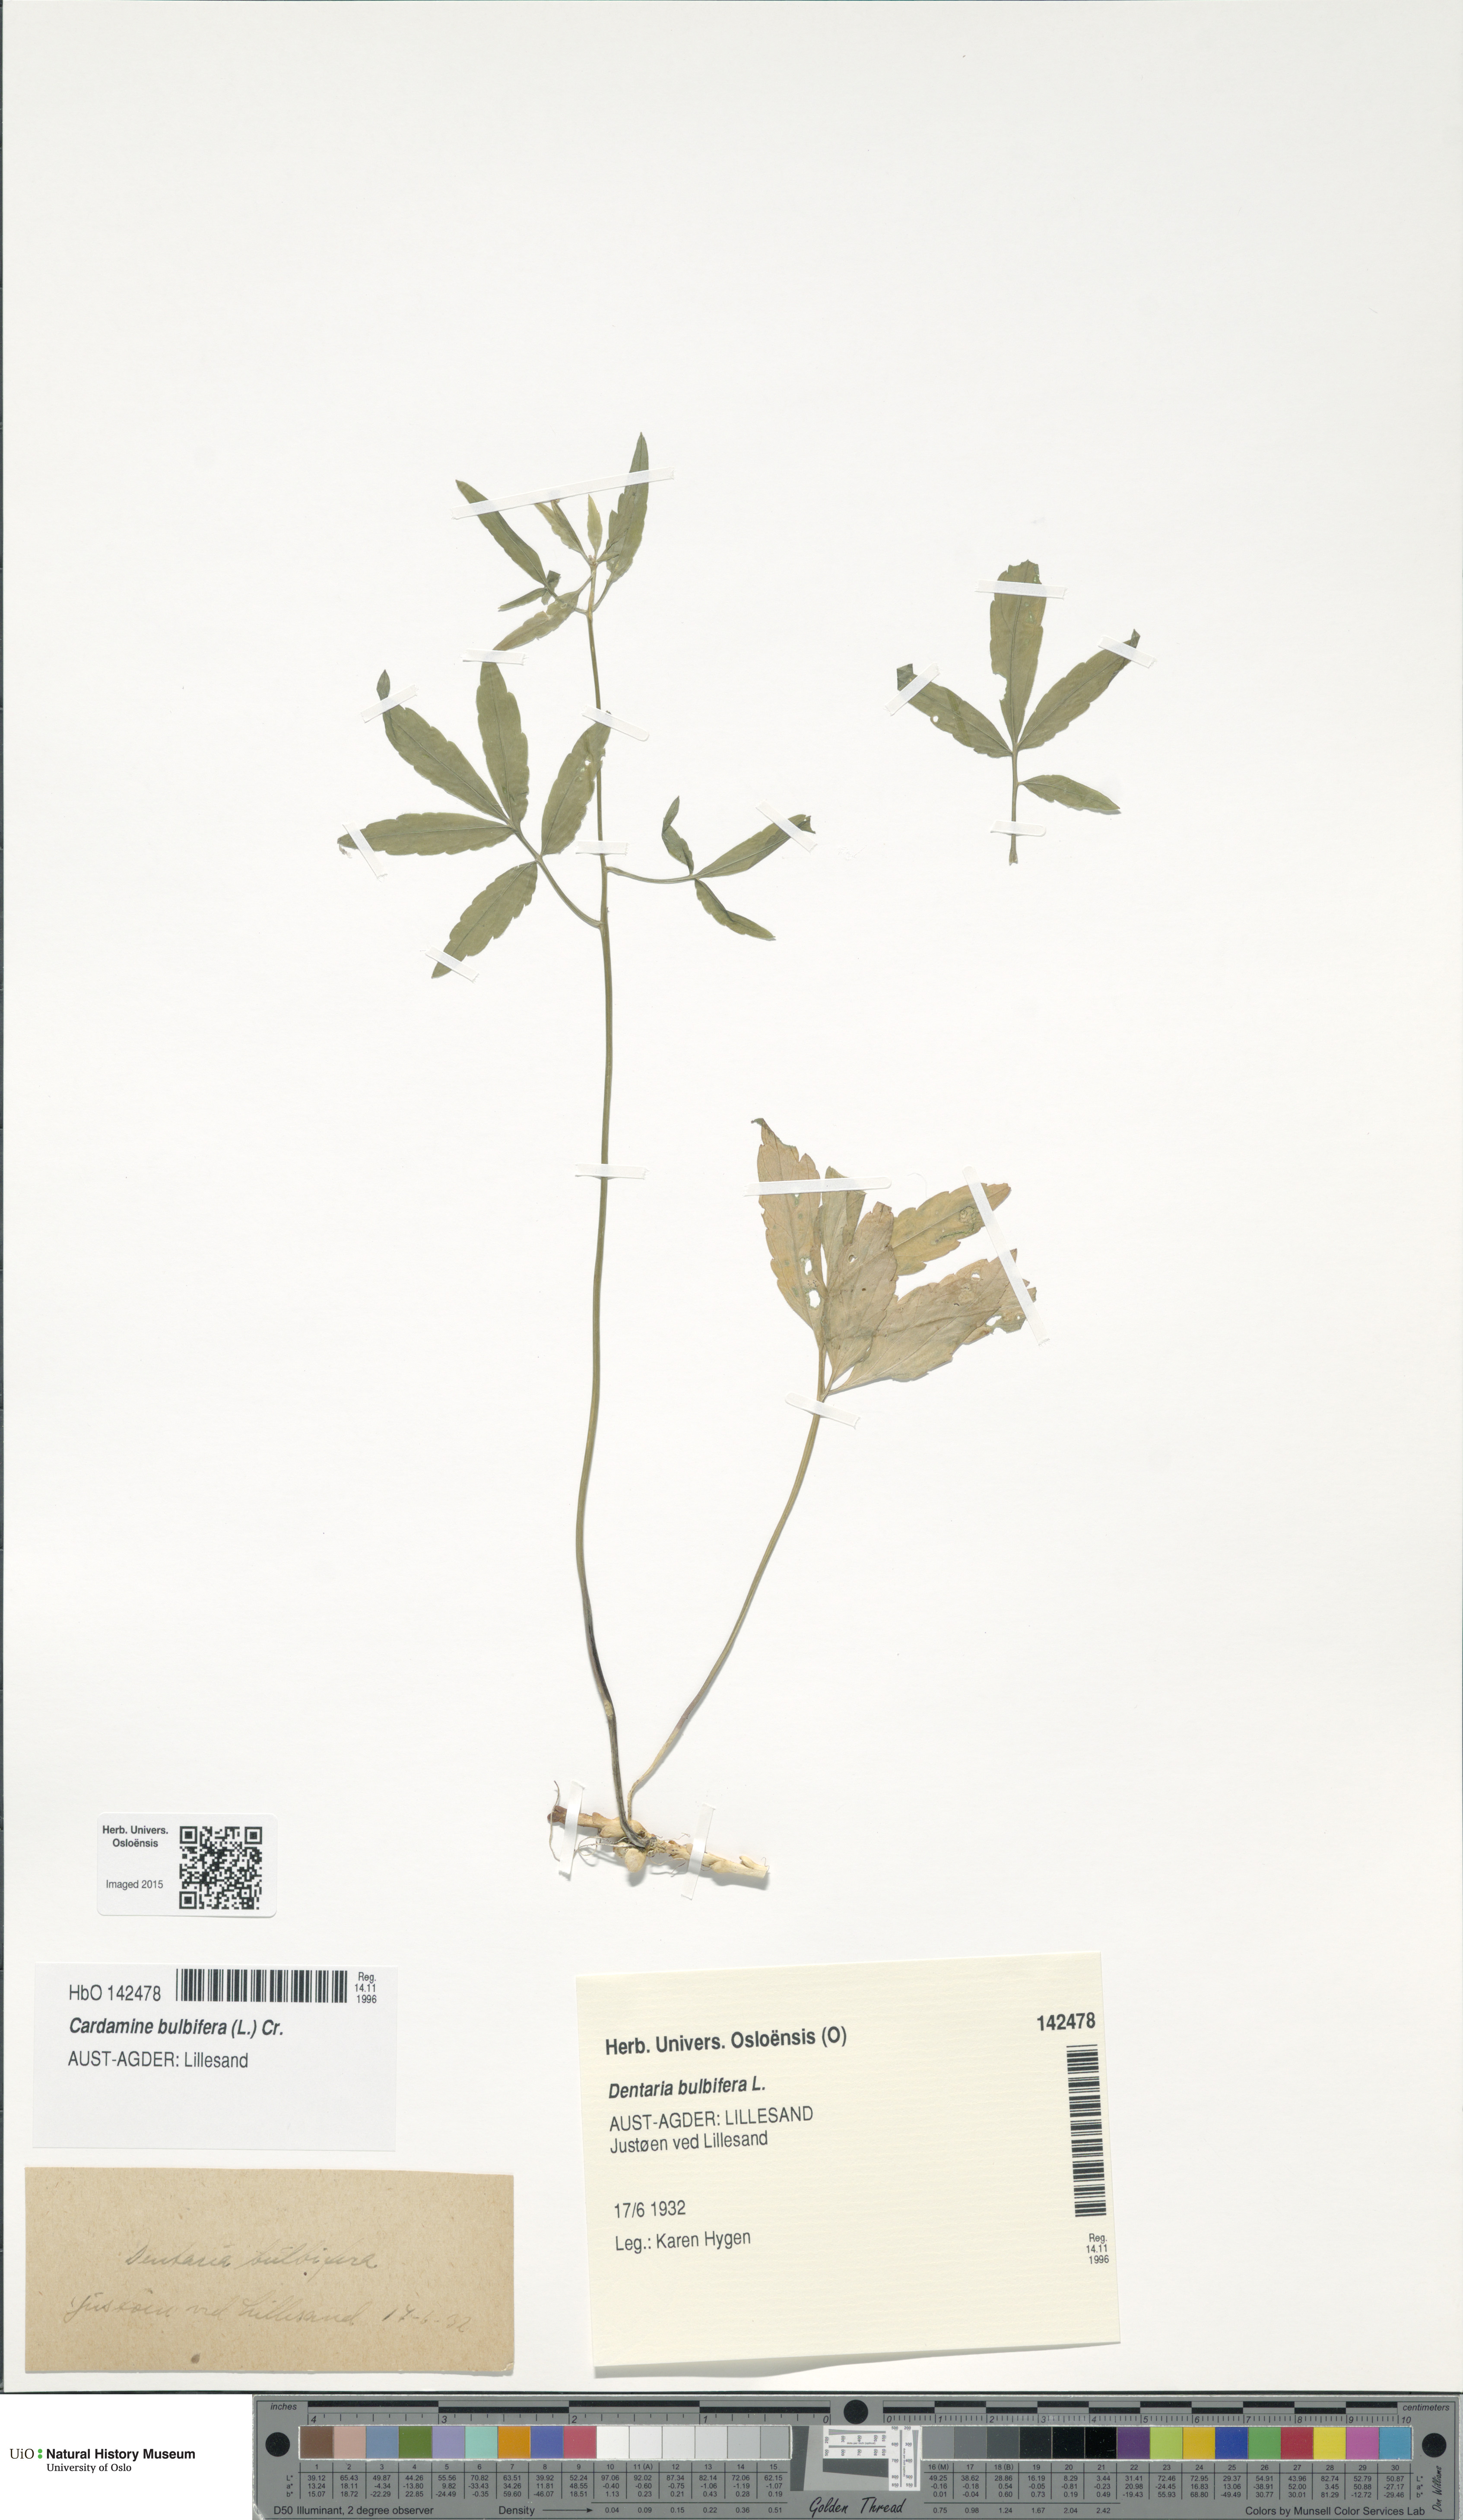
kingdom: Plantae
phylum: Tracheophyta
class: Magnoliopsida
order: Brassicales
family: Brassicaceae
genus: Cardamine
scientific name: Cardamine bulbifera
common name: Coralroot bittercress
